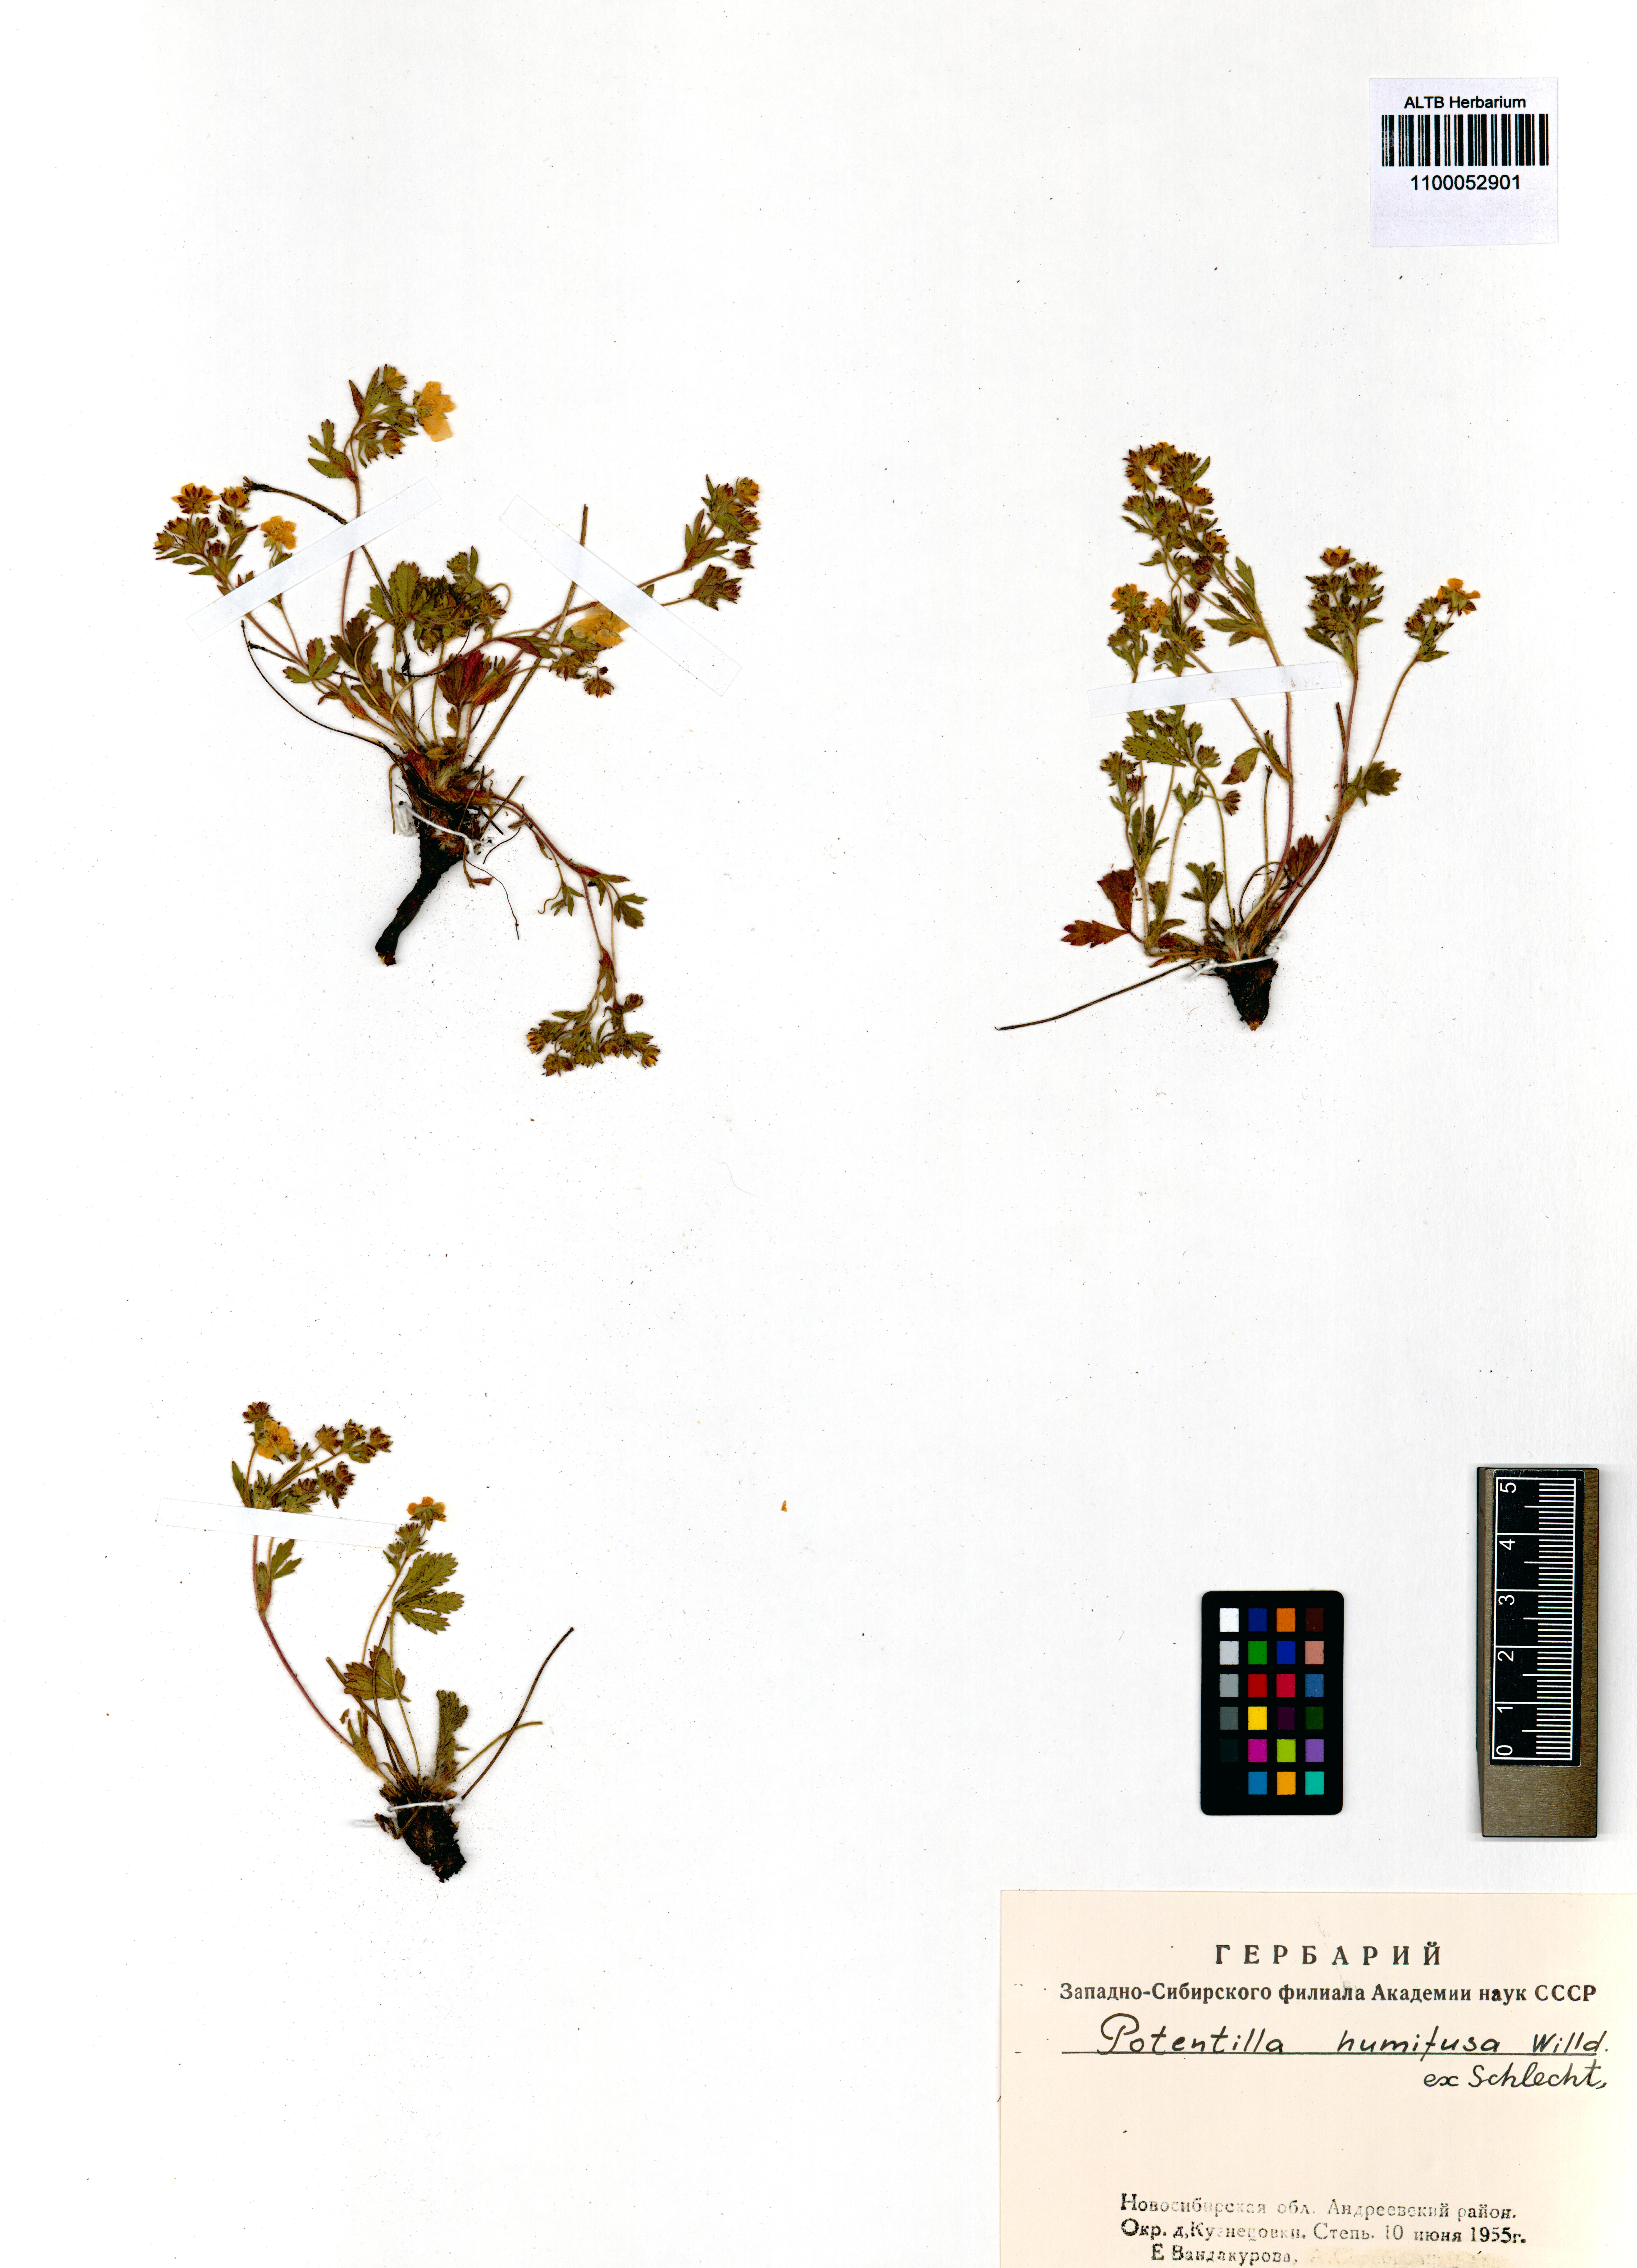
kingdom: Plantae
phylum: Tracheophyta
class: Magnoliopsida
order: Rosales
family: Rosaceae
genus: Potentilla
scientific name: Potentilla humifusa
